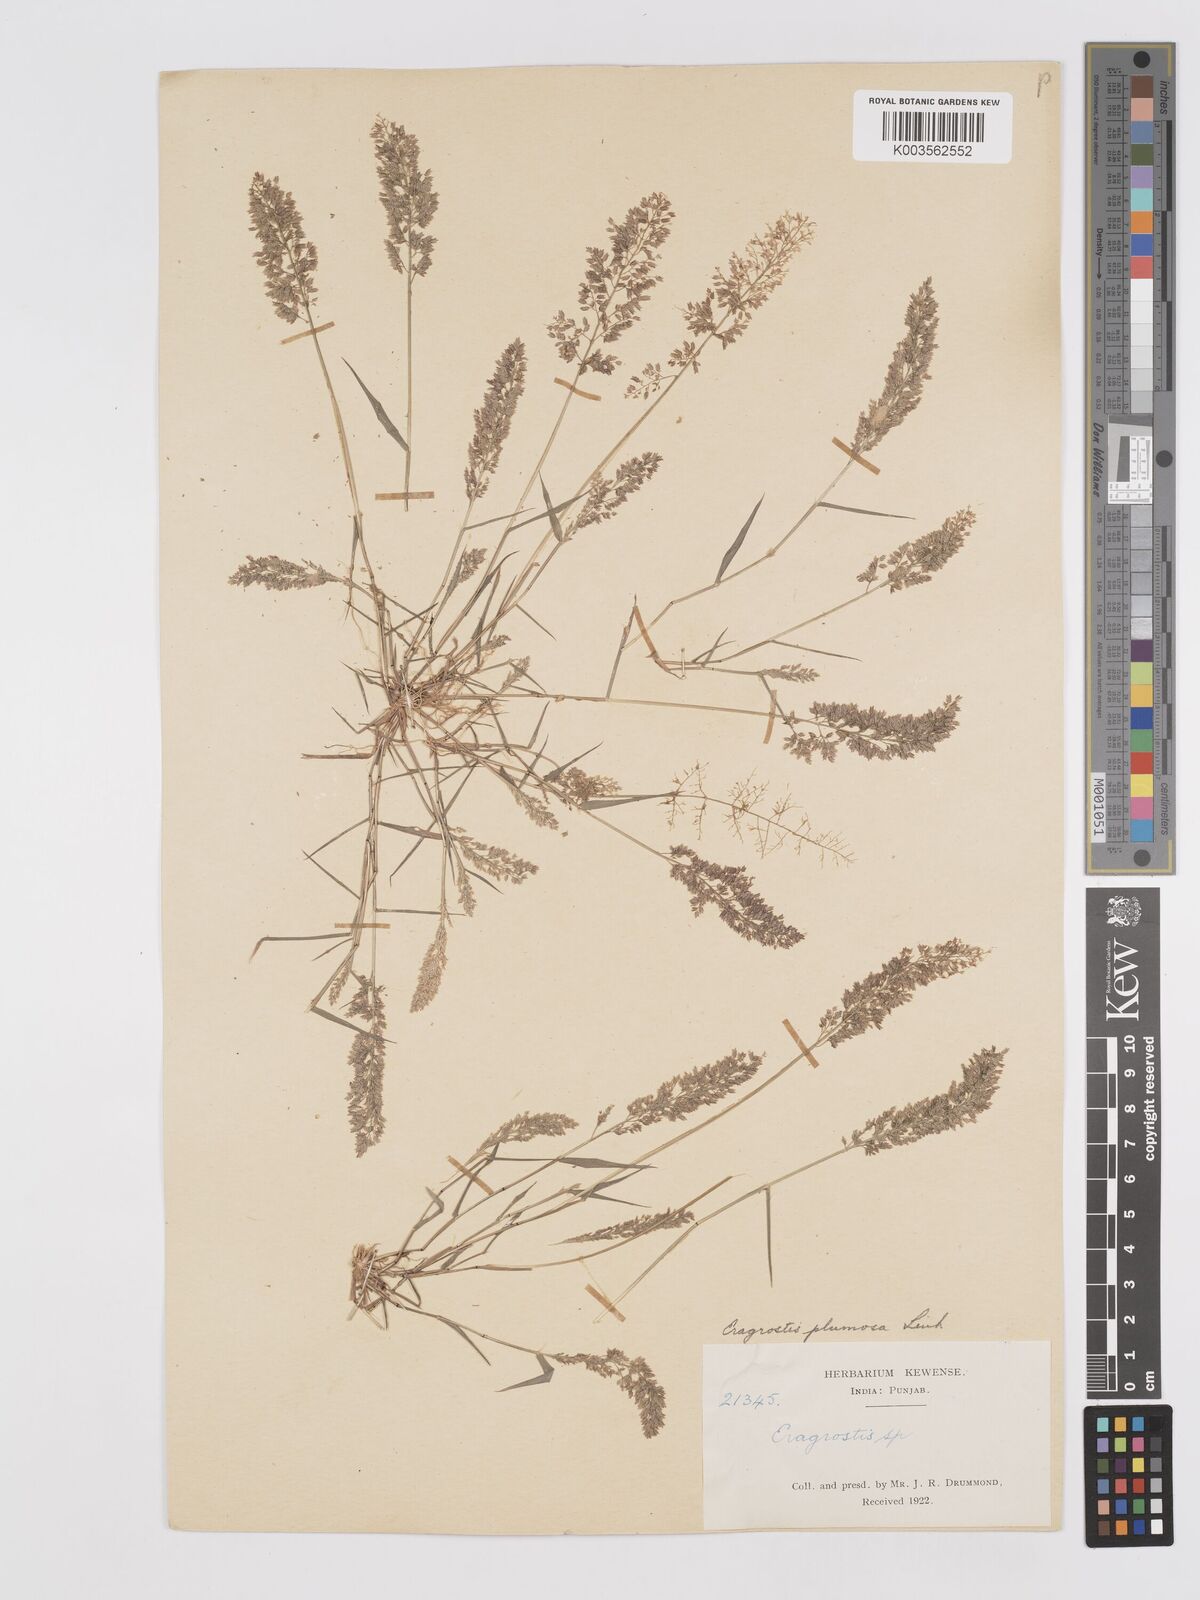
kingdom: Plantae
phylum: Tracheophyta
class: Liliopsida
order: Poales
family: Poaceae
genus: Eragrostis
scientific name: Eragrostis tenella
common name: Japanese lovegrass
